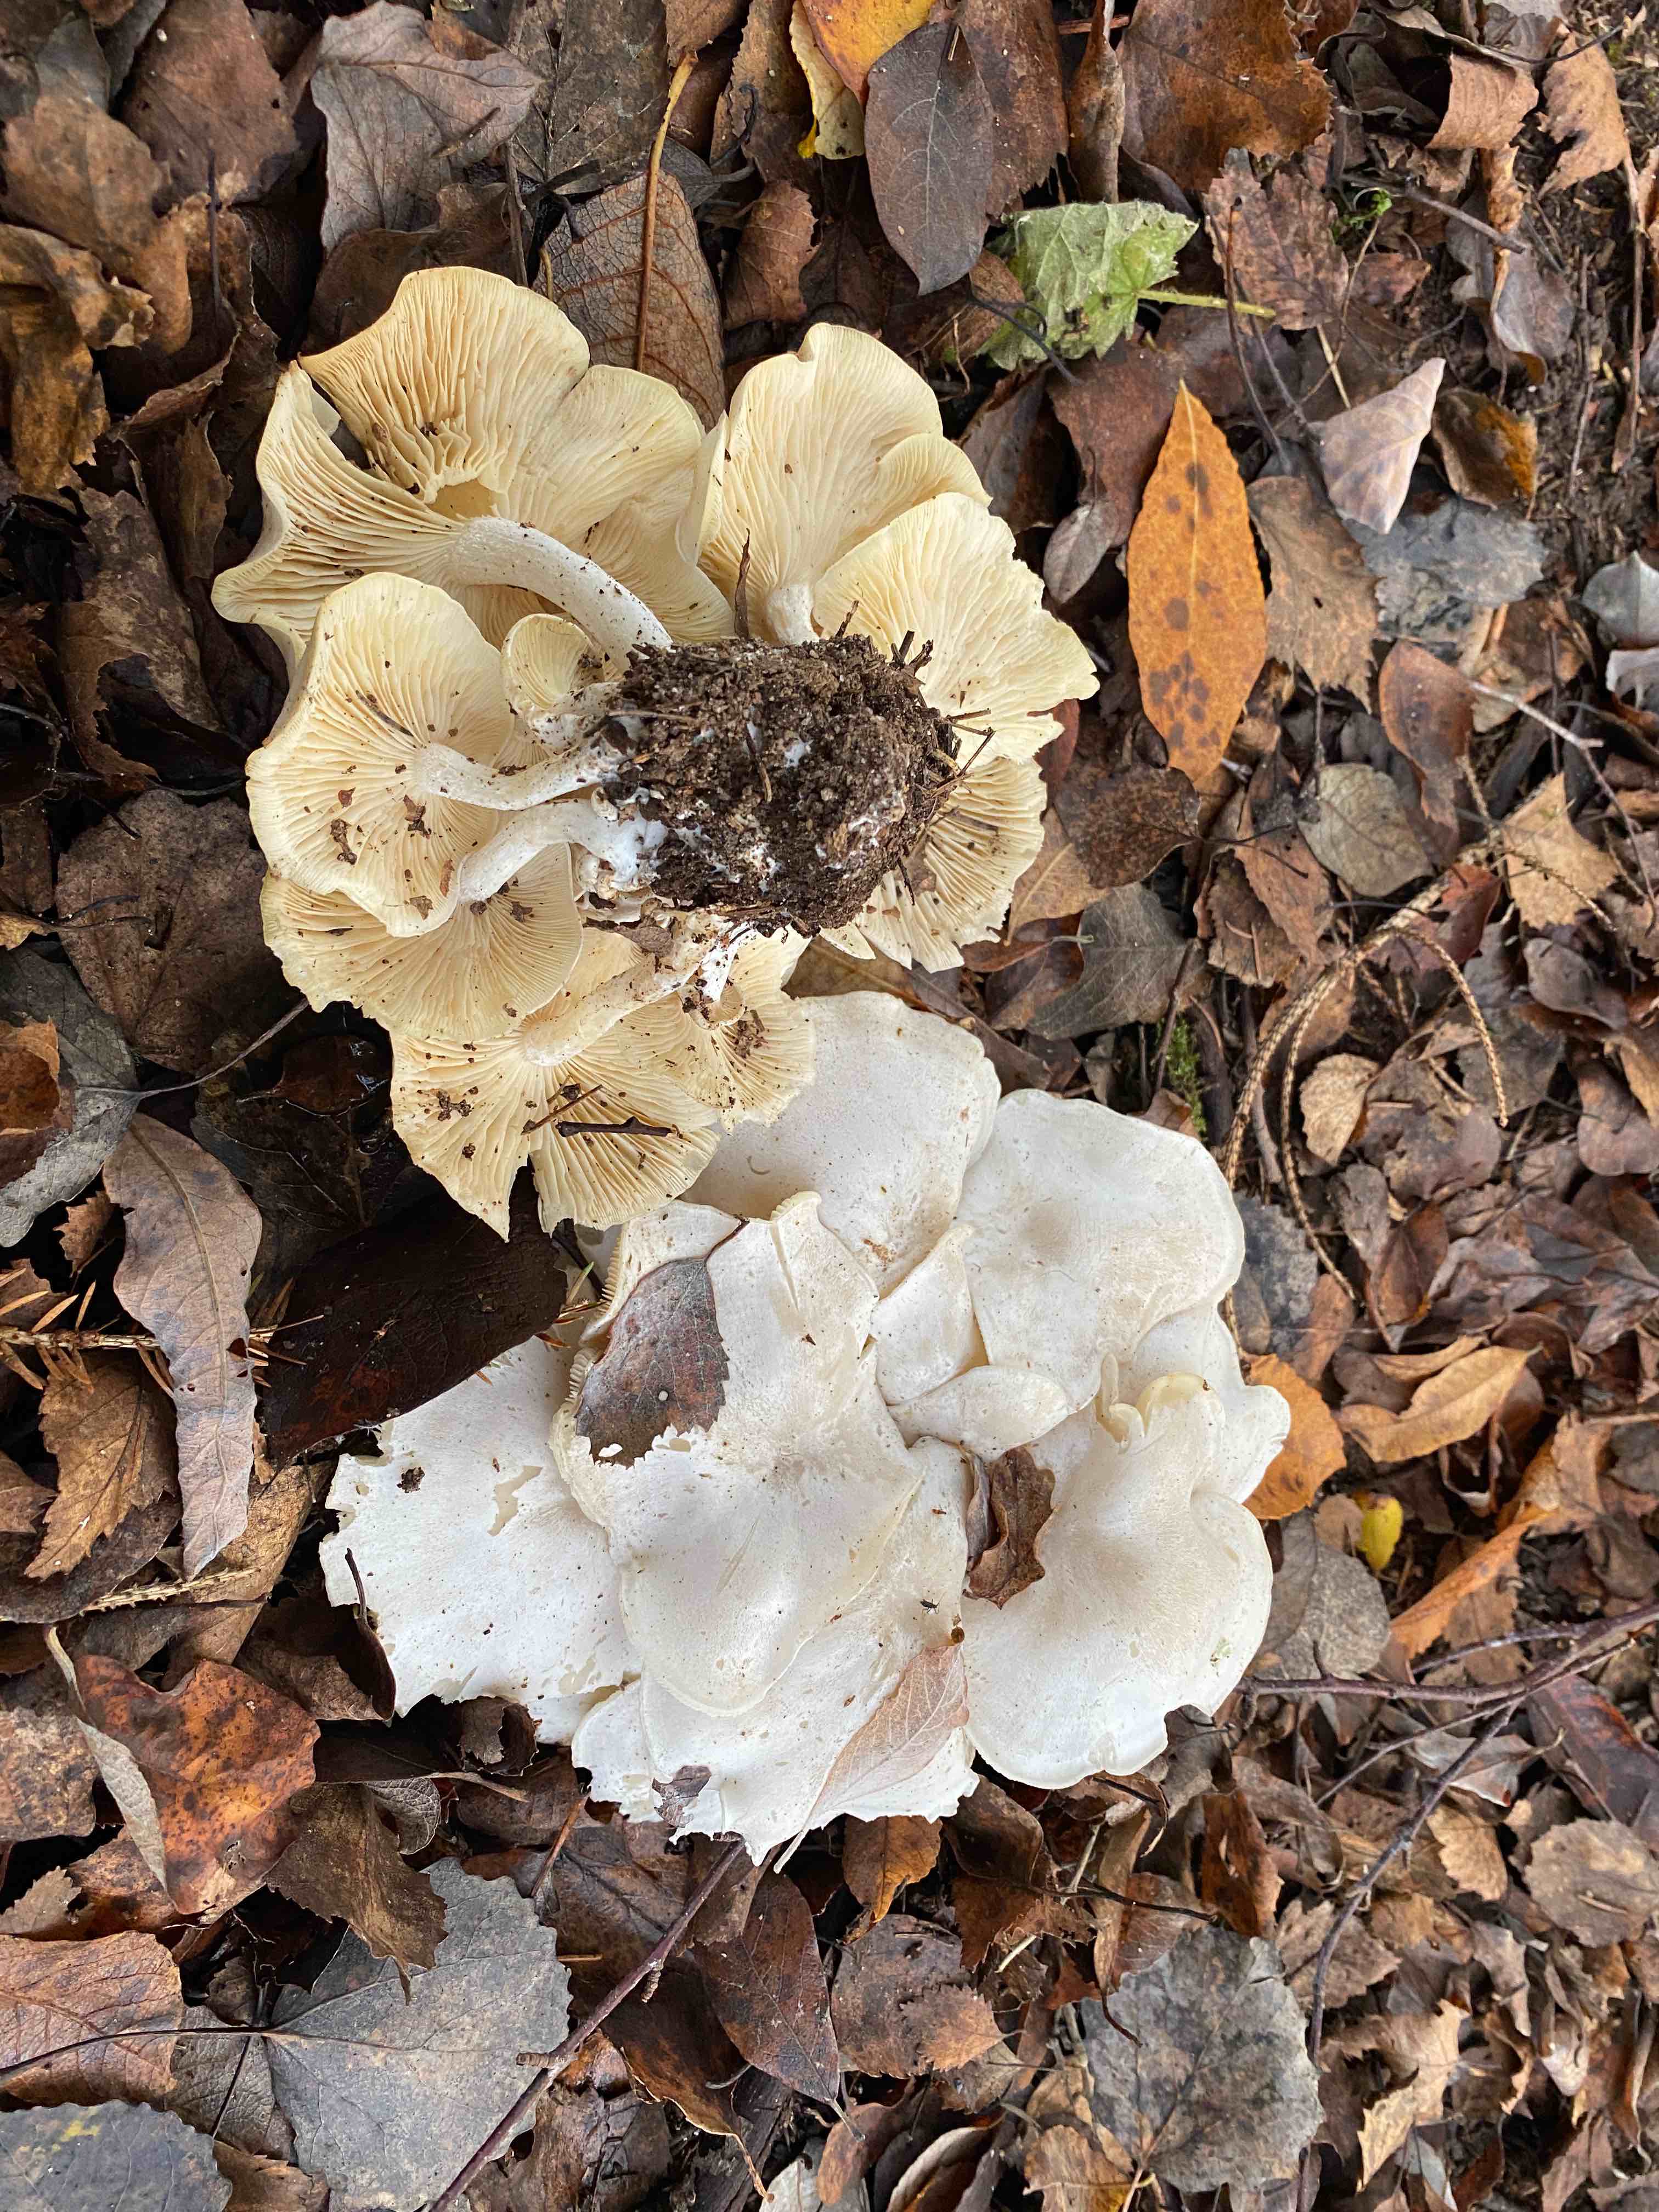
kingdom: Fungi
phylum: Basidiomycota
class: Agaricomycetes
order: Agaricales
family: Tricholomataceae
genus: Leucocybe
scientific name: Leucocybe connata
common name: knippe-tragthat
